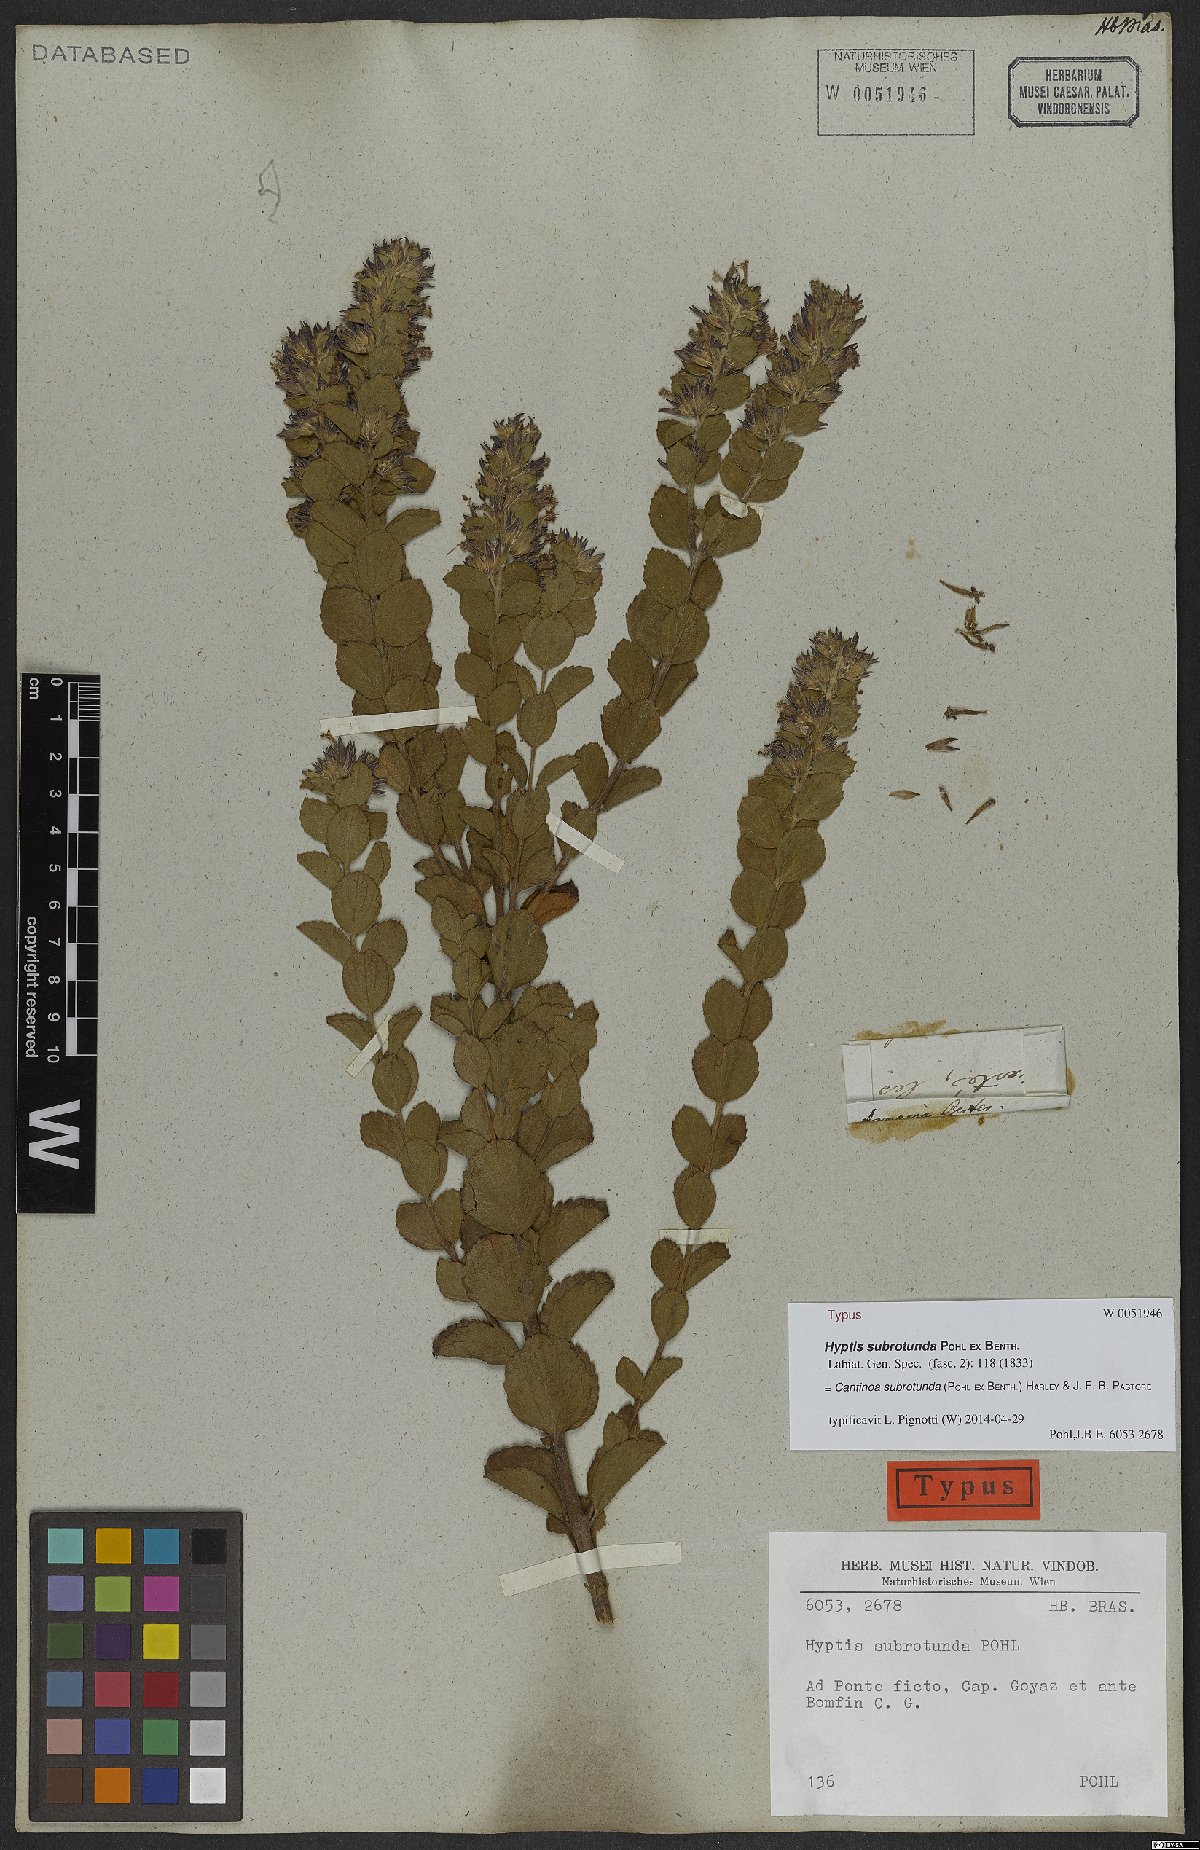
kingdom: Plantae
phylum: Tracheophyta
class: Magnoliopsida
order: Lamiales
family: Lamiaceae
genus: Cantinoa
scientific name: Cantinoa subrotunda
